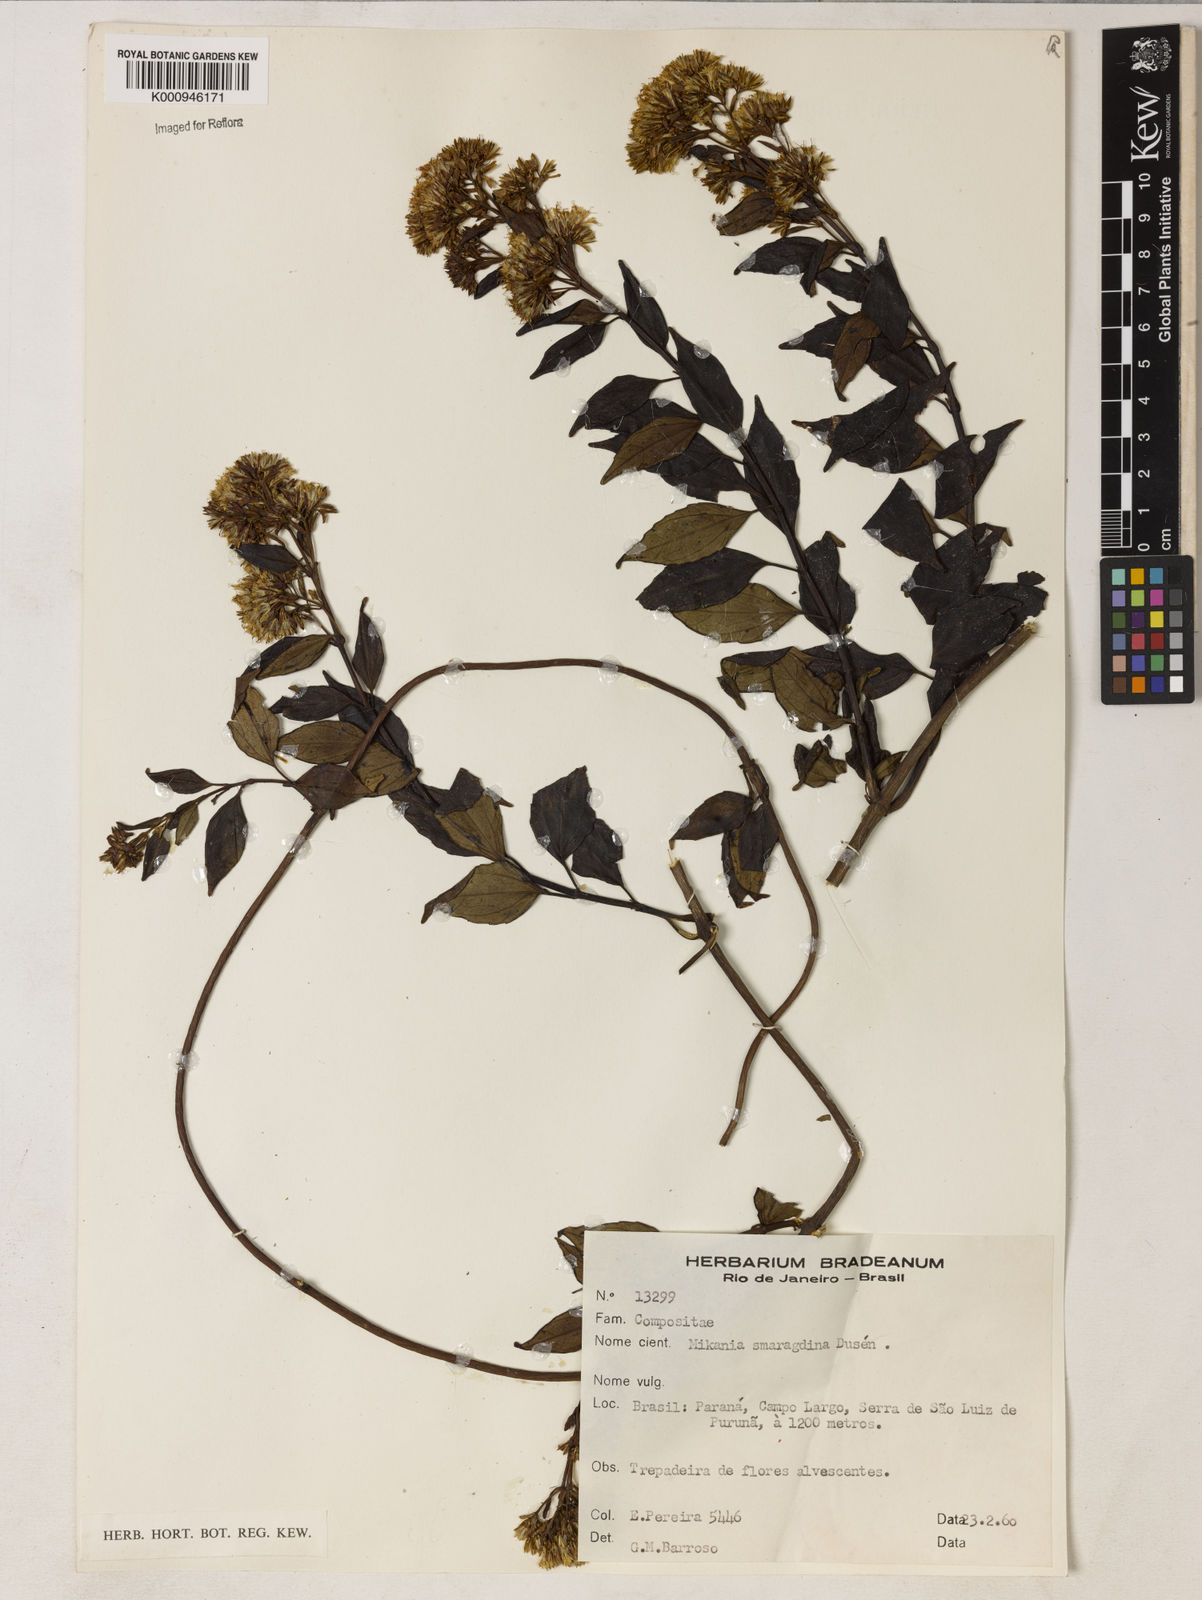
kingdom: Plantae
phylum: Tracheophyta
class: Magnoliopsida
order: Asterales
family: Asteraceae
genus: Mikania
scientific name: Mikania
